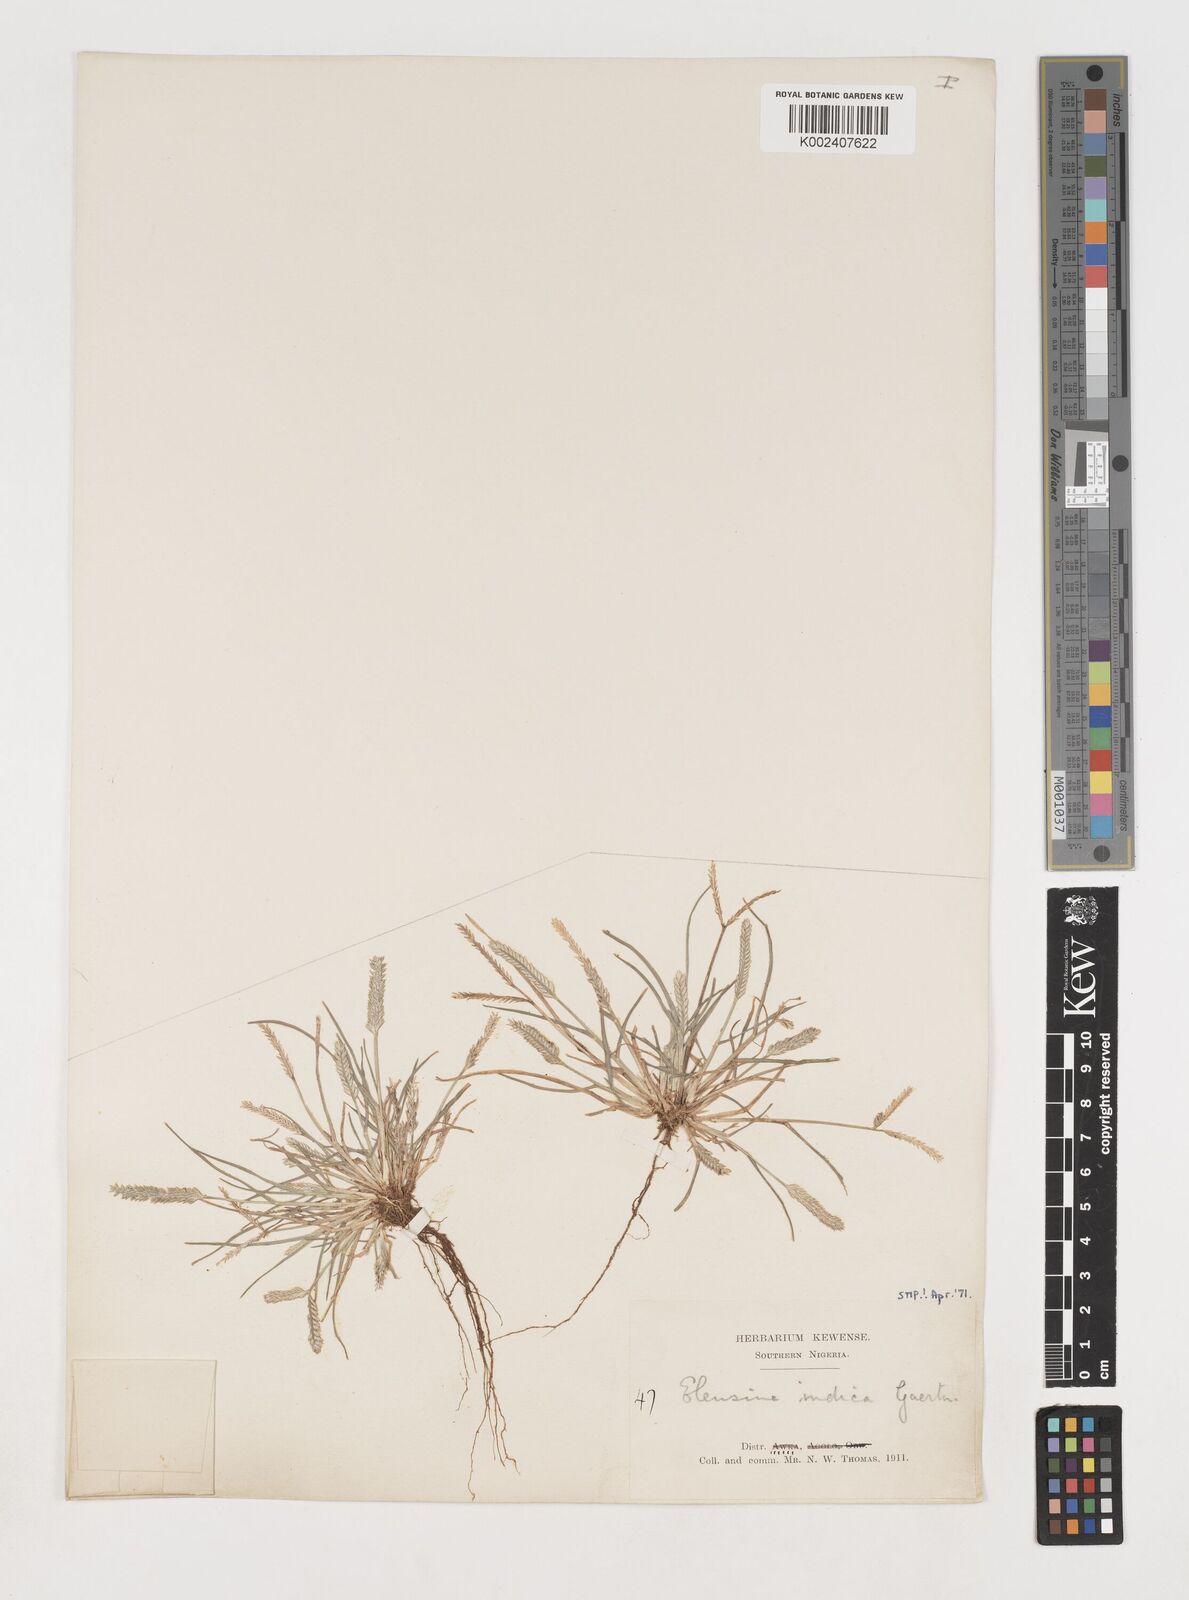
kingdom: Plantae
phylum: Tracheophyta
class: Liliopsida
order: Poales
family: Poaceae
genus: Eleusine
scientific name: Eleusine indica
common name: Yard-grass
